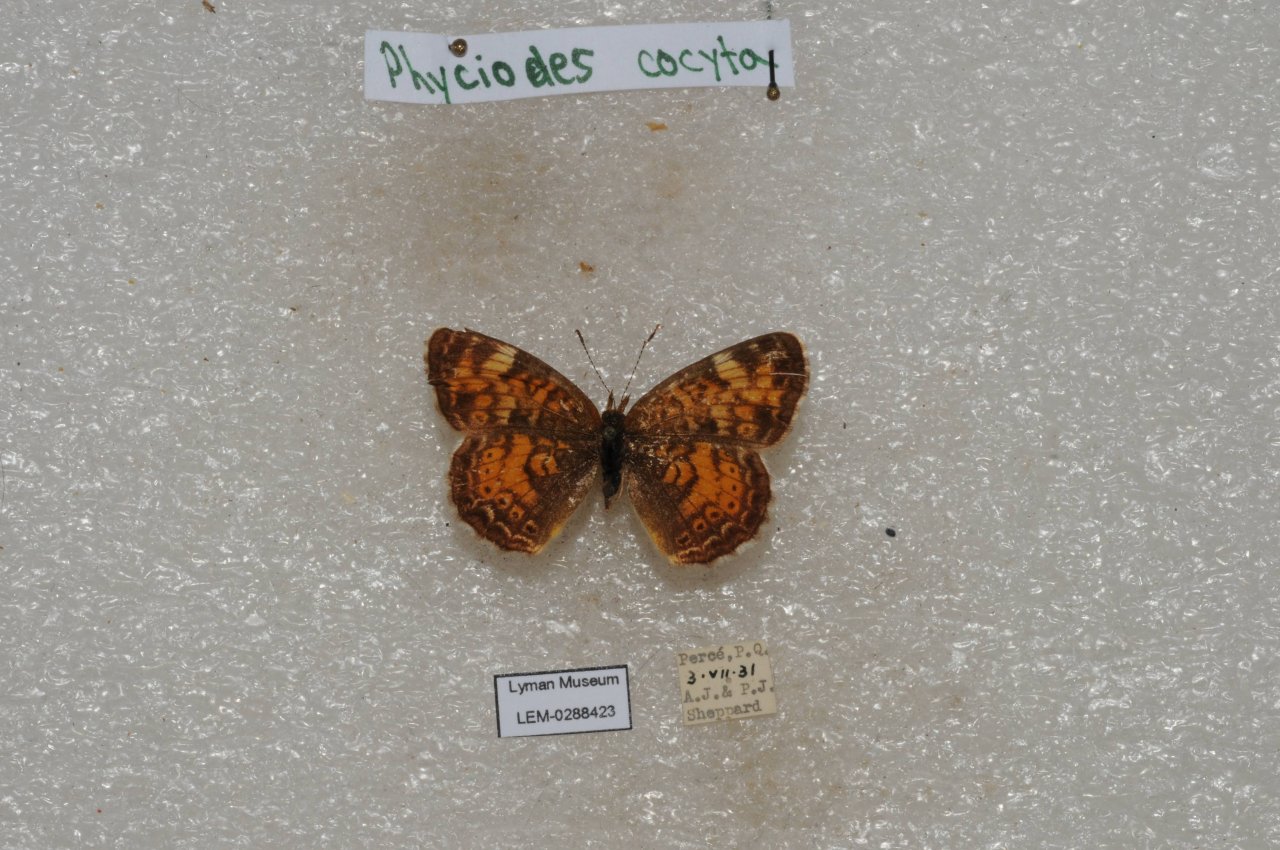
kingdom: Animalia
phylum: Arthropoda
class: Insecta
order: Lepidoptera
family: Nymphalidae
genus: Phyciodes
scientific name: Phyciodes tharos
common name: Northern Crescent
